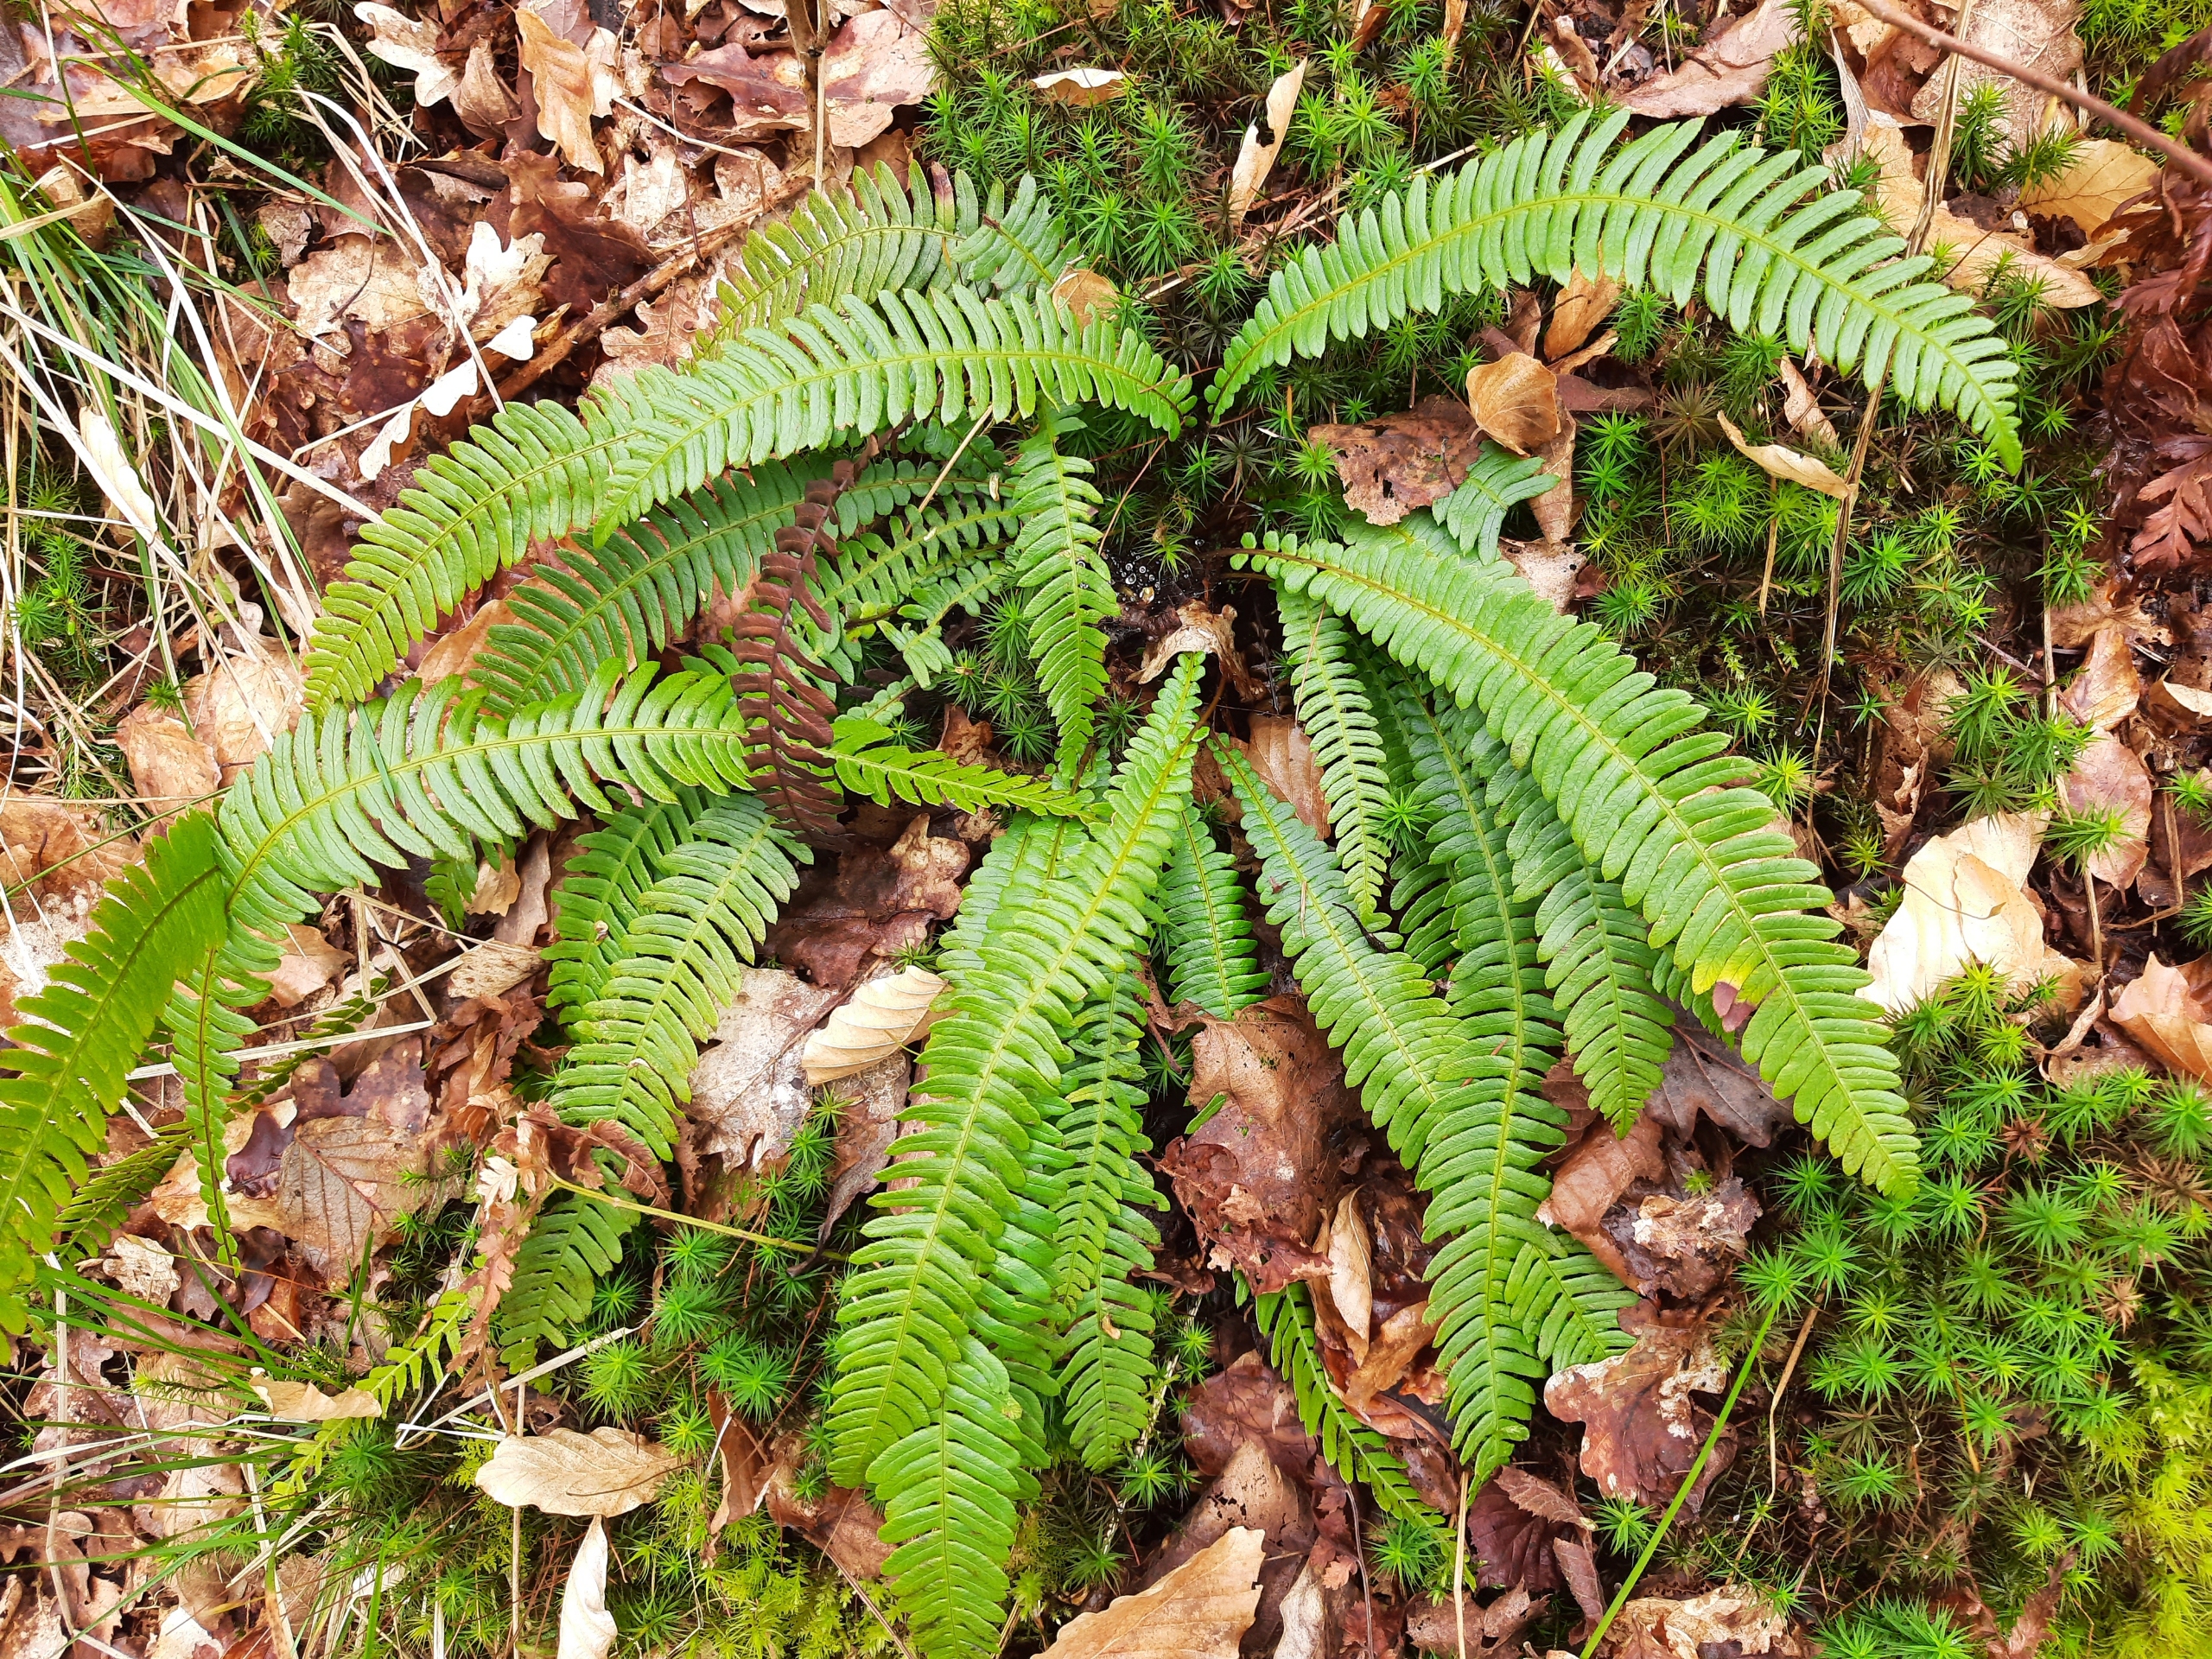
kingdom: Plantae
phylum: Tracheophyta
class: Polypodiopsida
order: Polypodiales
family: Blechnaceae
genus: Struthiopteris
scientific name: Struthiopteris spicant
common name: Kambregne
